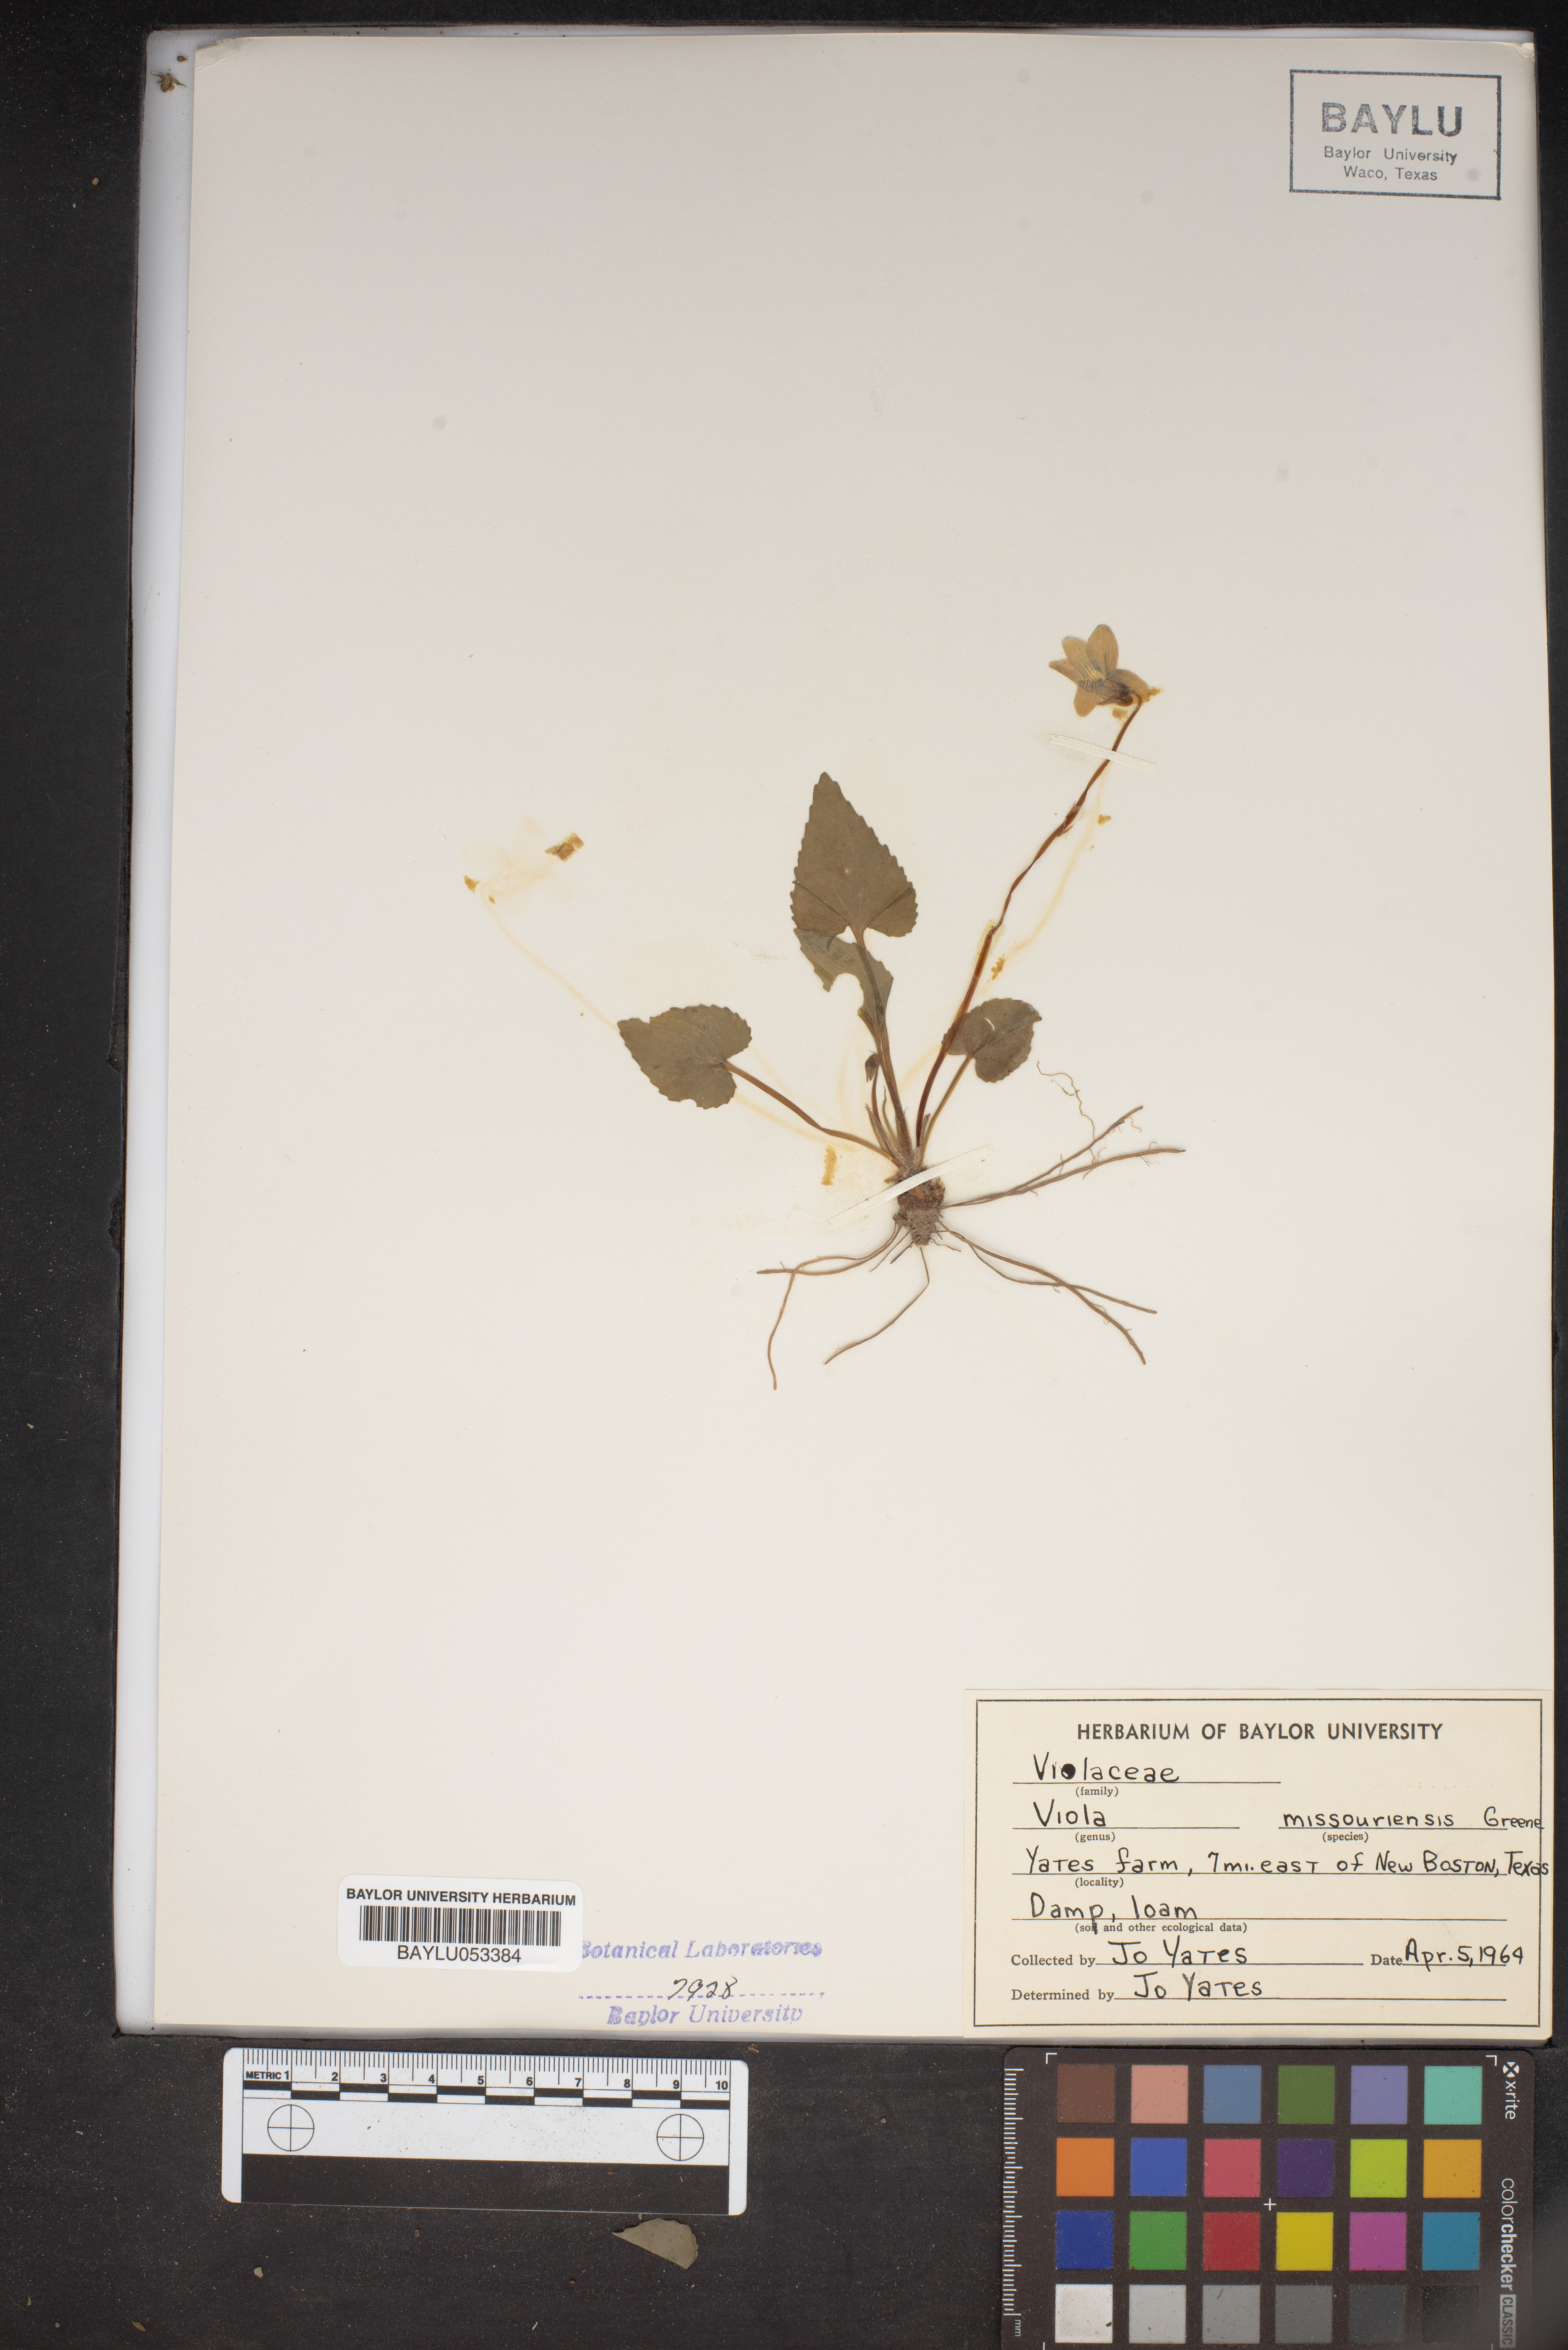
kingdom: Plantae
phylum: Tracheophyta
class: Magnoliopsida
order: Malpighiales
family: Violaceae
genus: Viola
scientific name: Viola missouriensis
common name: Missouri violet
